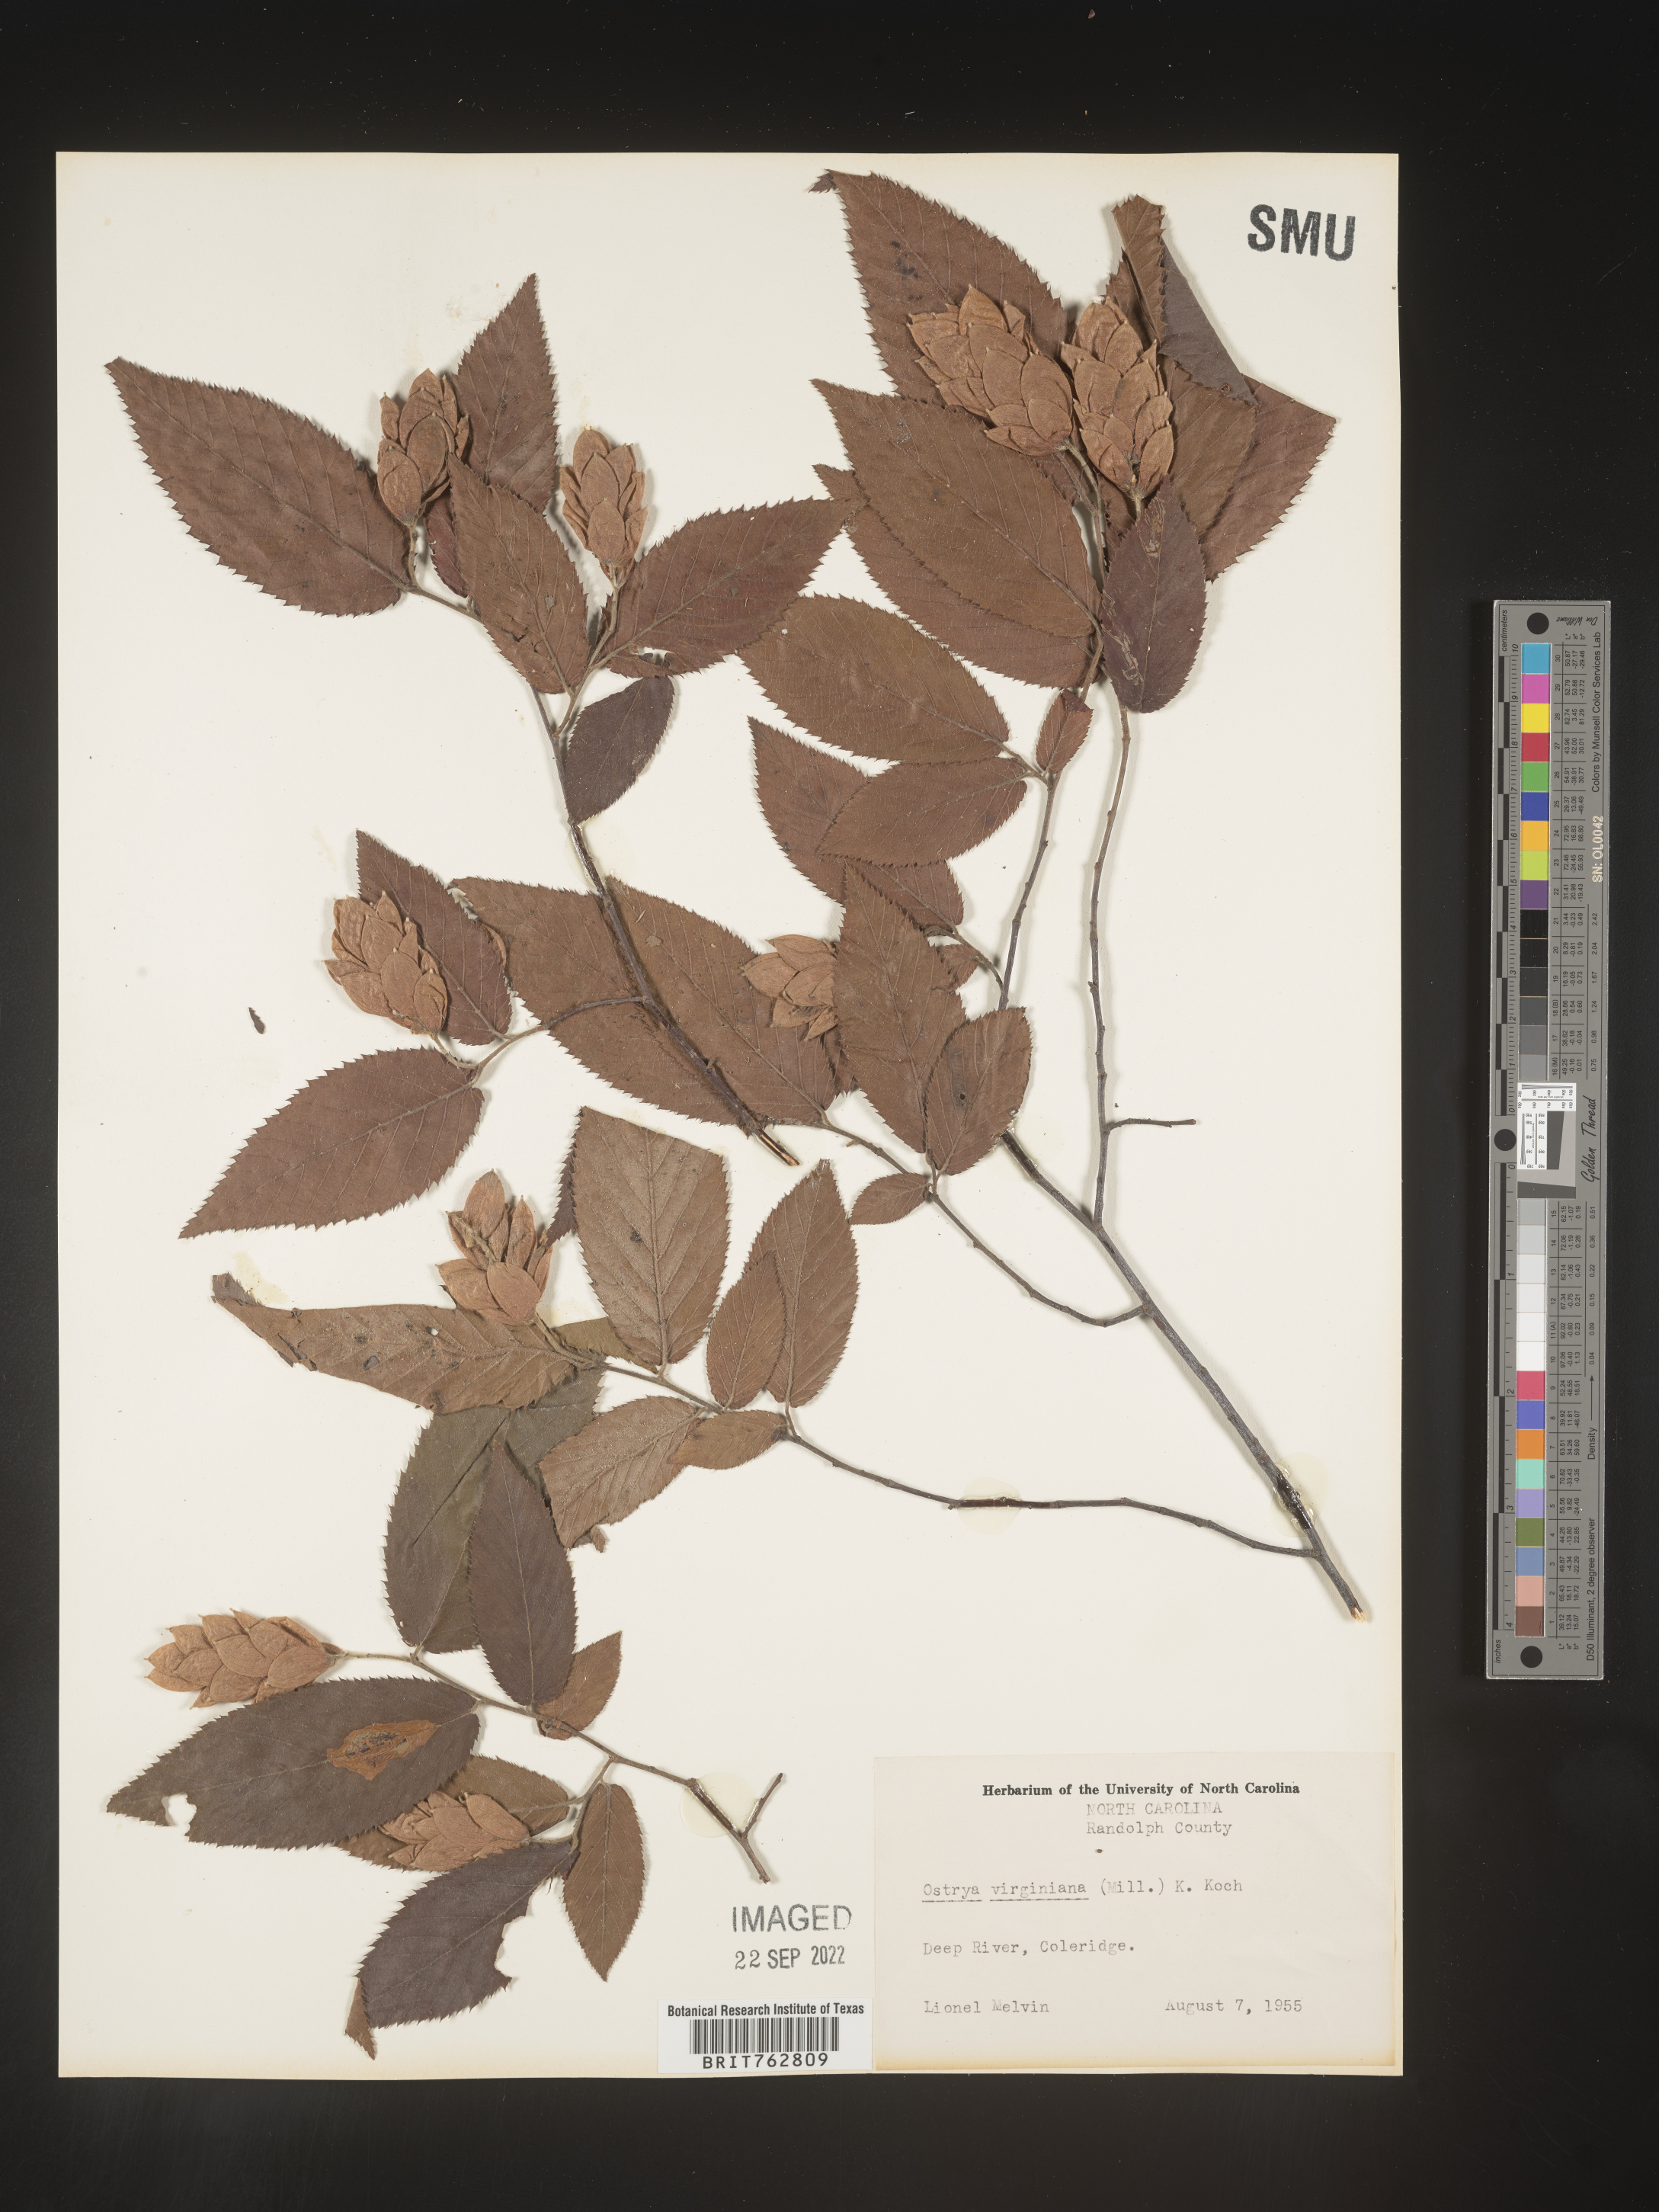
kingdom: Plantae
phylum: Tracheophyta
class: Magnoliopsida
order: Fagales
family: Betulaceae
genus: Ostrya
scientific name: Ostrya virginiana
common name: Ironwood
